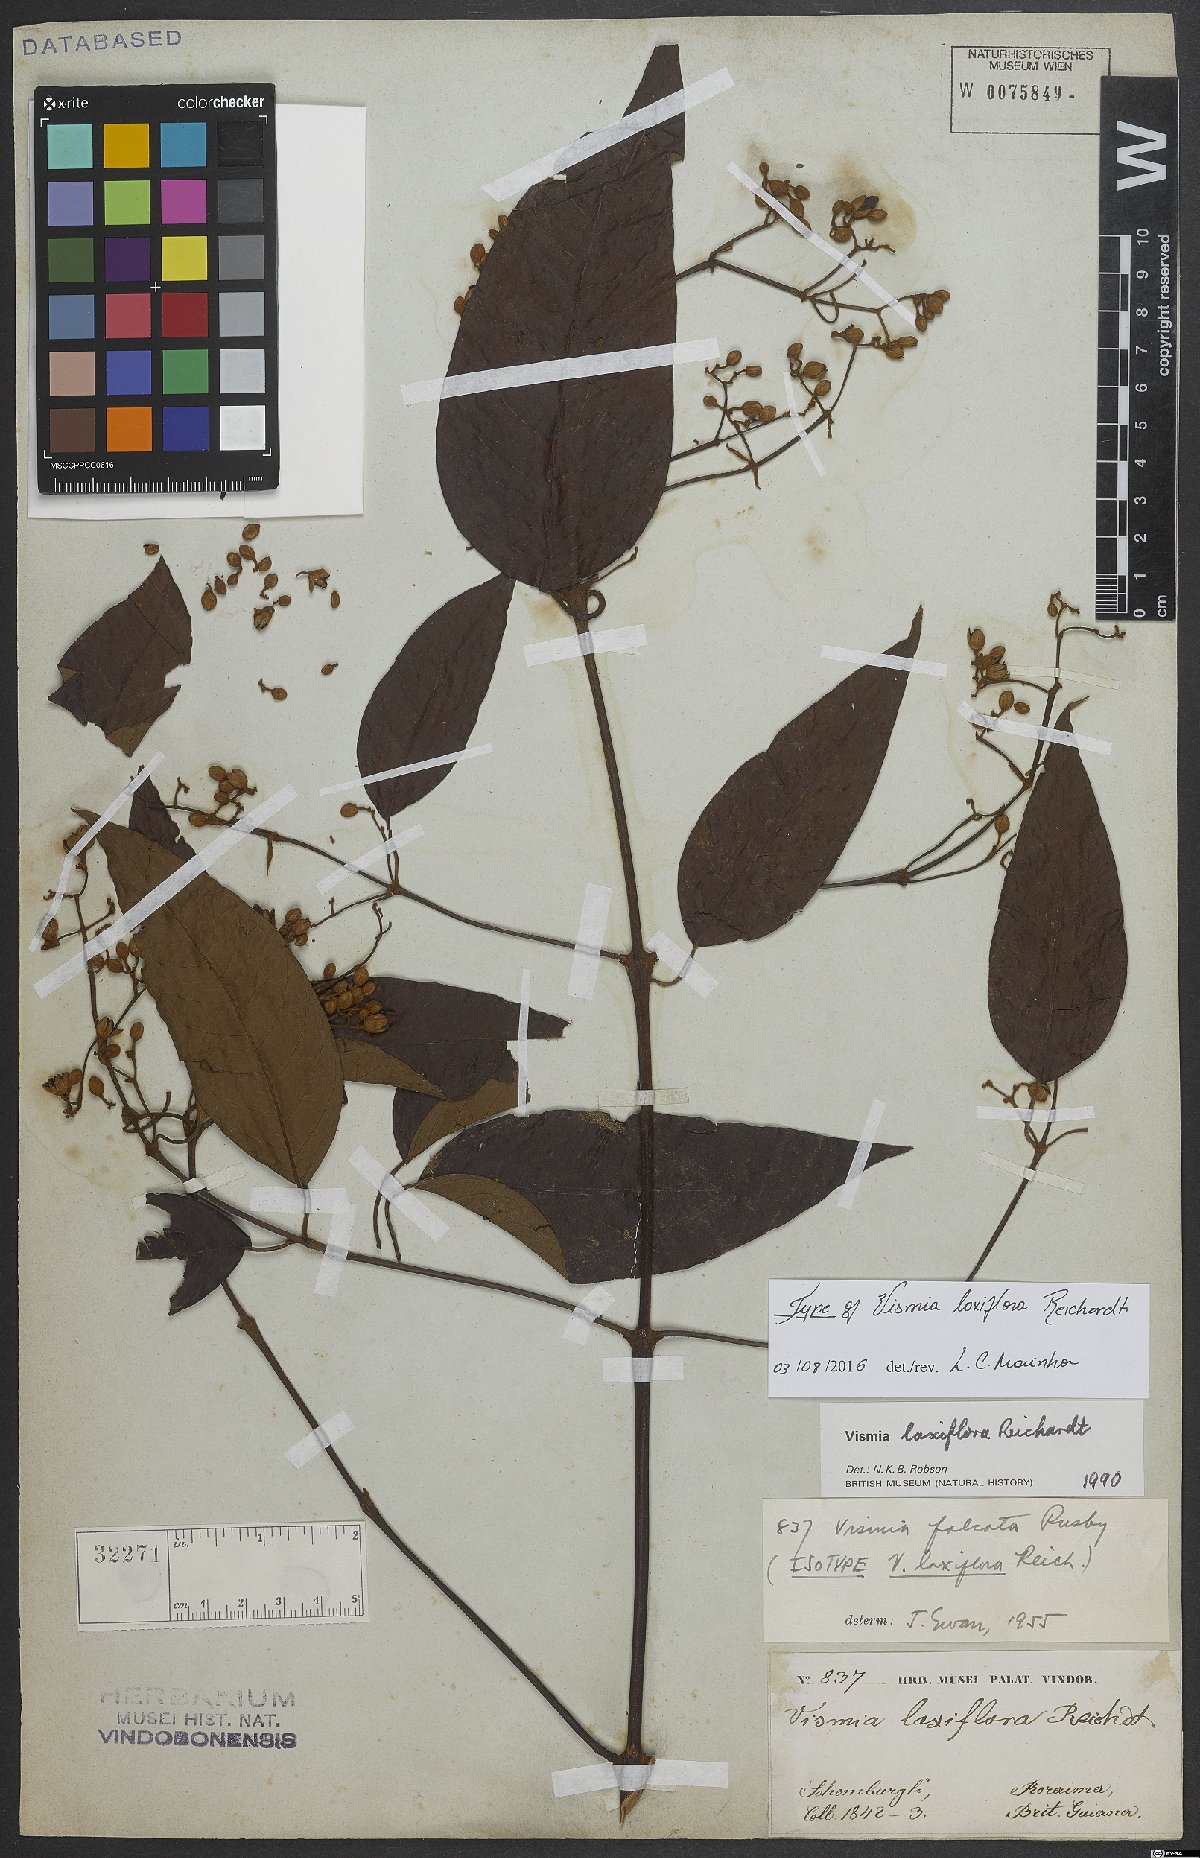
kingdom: Plantae
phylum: Tracheophyta
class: Magnoliopsida
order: Malpighiales
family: Hypericaceae
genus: Vismia
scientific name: Vismia laxiflora
